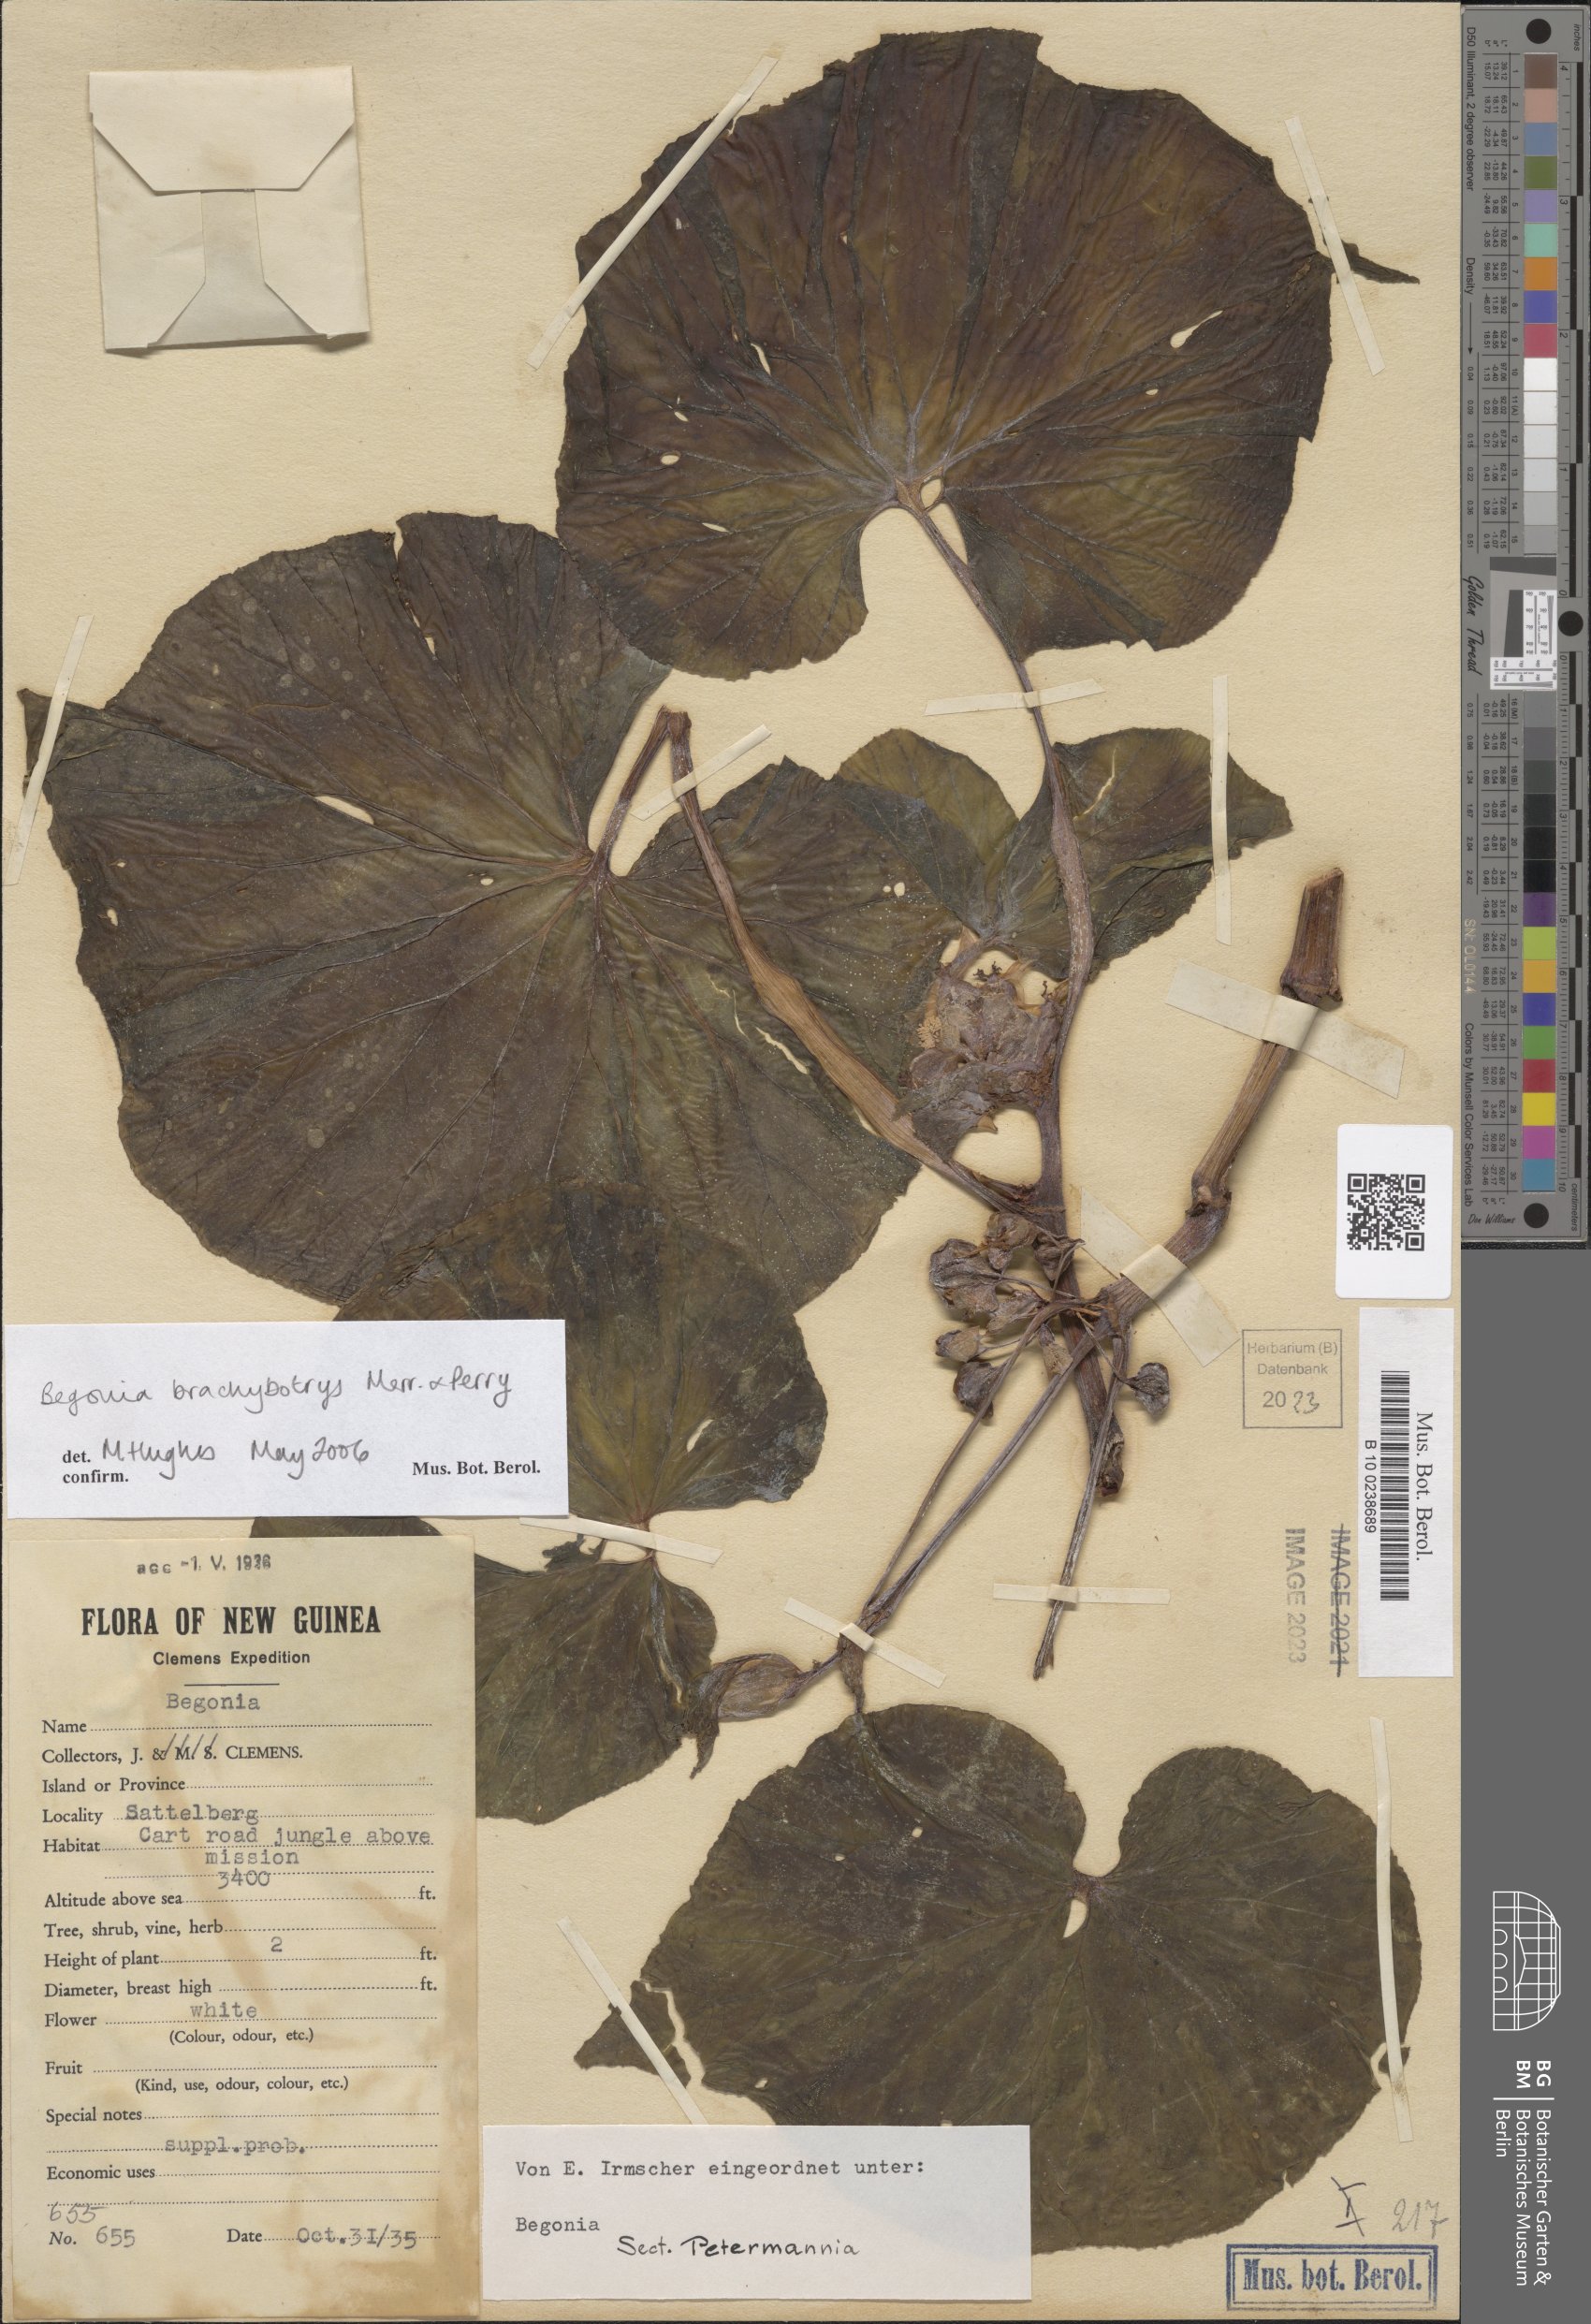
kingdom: Plantae
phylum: Tracheophyta
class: Magnoliopsida
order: Cucurbitales
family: Begoniaceae
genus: Begonia
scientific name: Begonia brachybotrys
